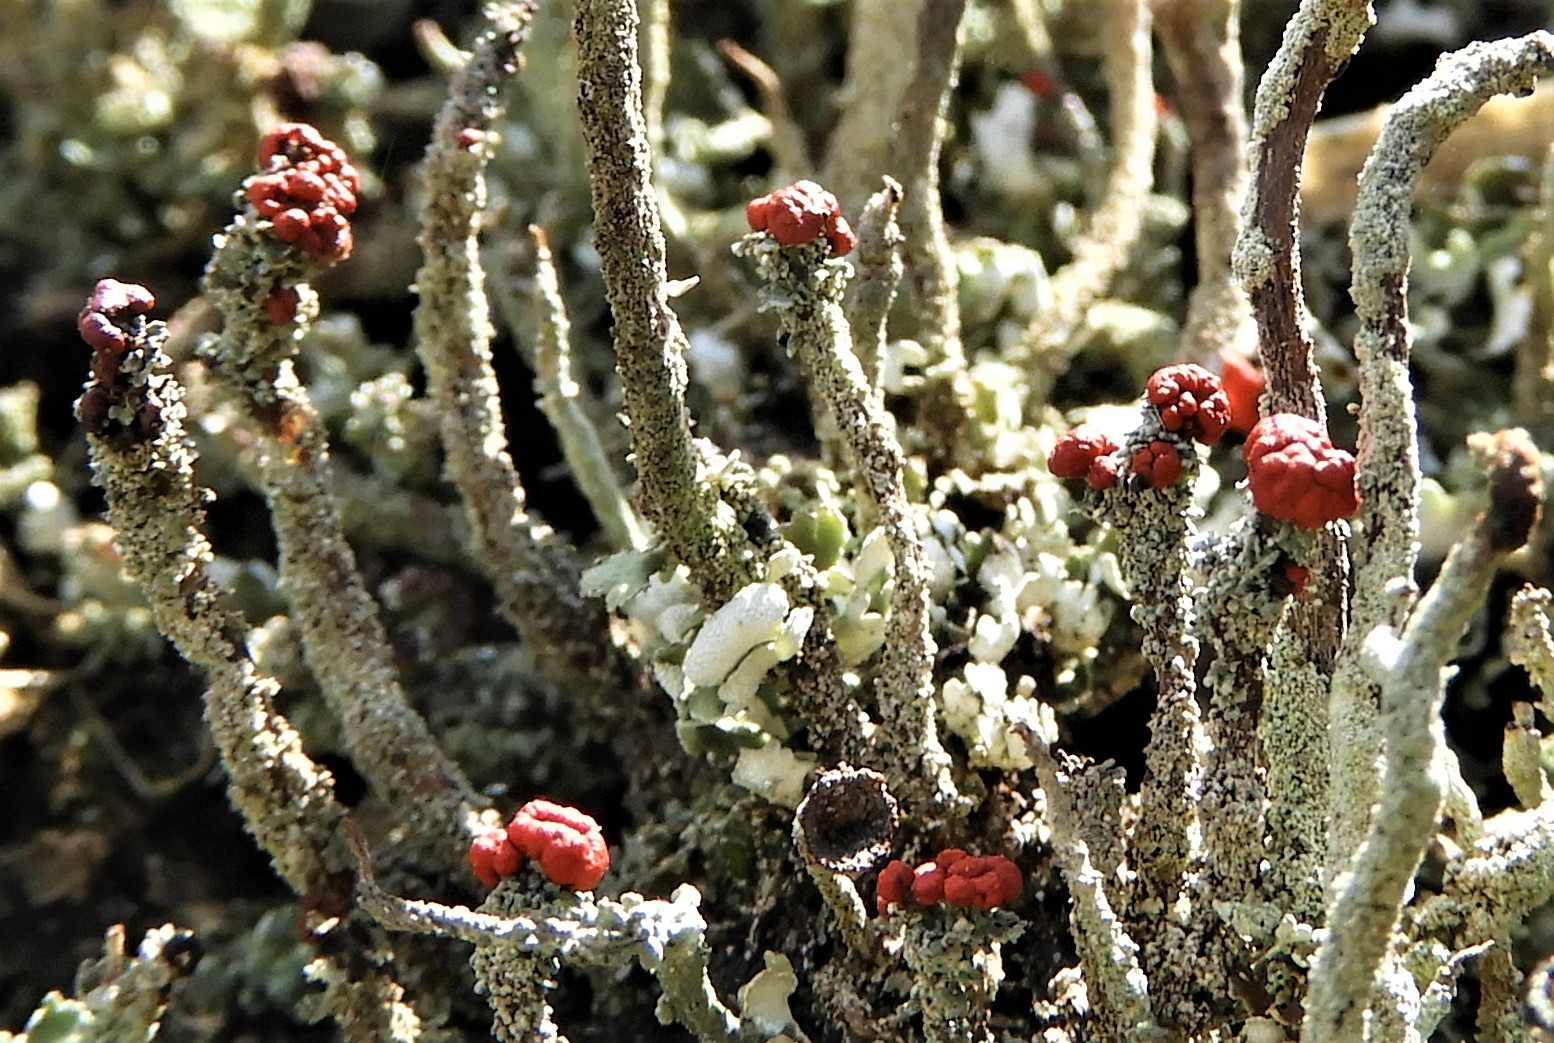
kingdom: Fungi
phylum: Ascomycota
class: Lecanoromycetes
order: Lecanorales
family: Cladoniaceae
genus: Cladonia
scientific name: Cladonia floerkeana
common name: lakrød bægerlav
